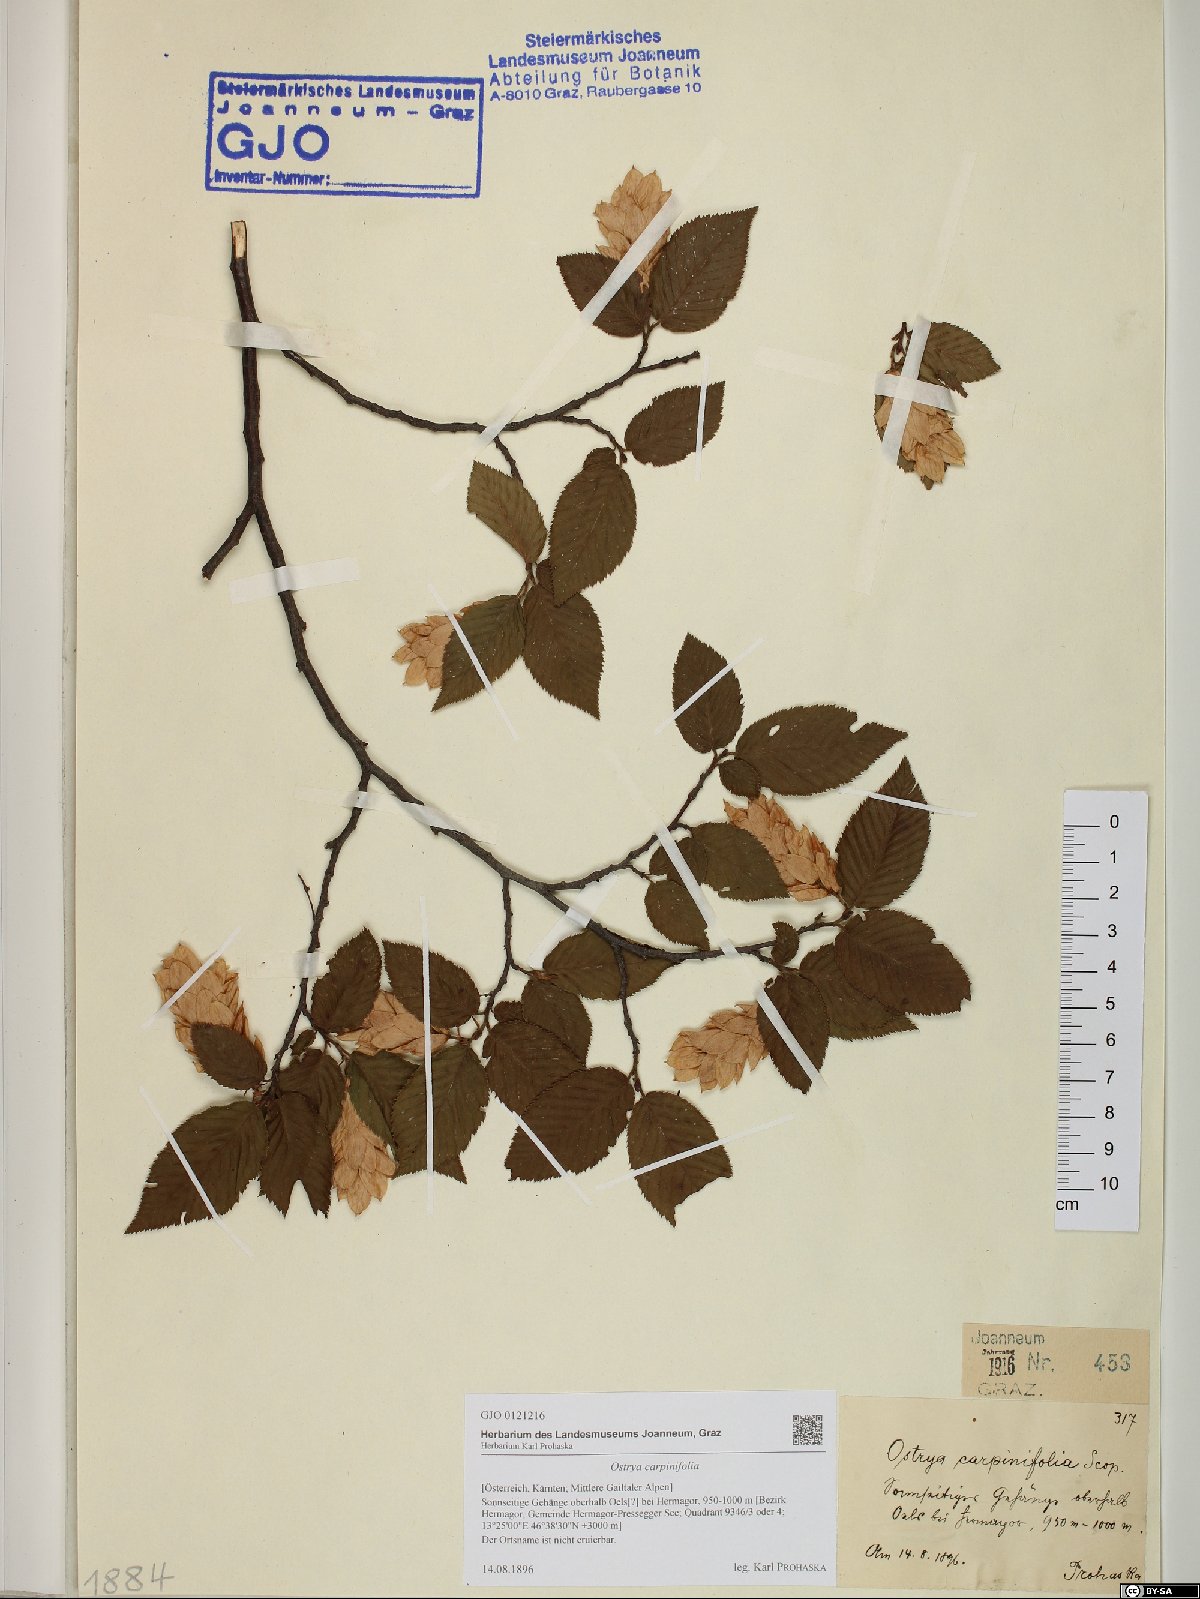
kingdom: Plantae
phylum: Tracheophyta
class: Magnoliopsida
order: Fagales
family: Betulaceae
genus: Ostrya
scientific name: Ostrya carpinifolia
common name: European hop-hornbeam
